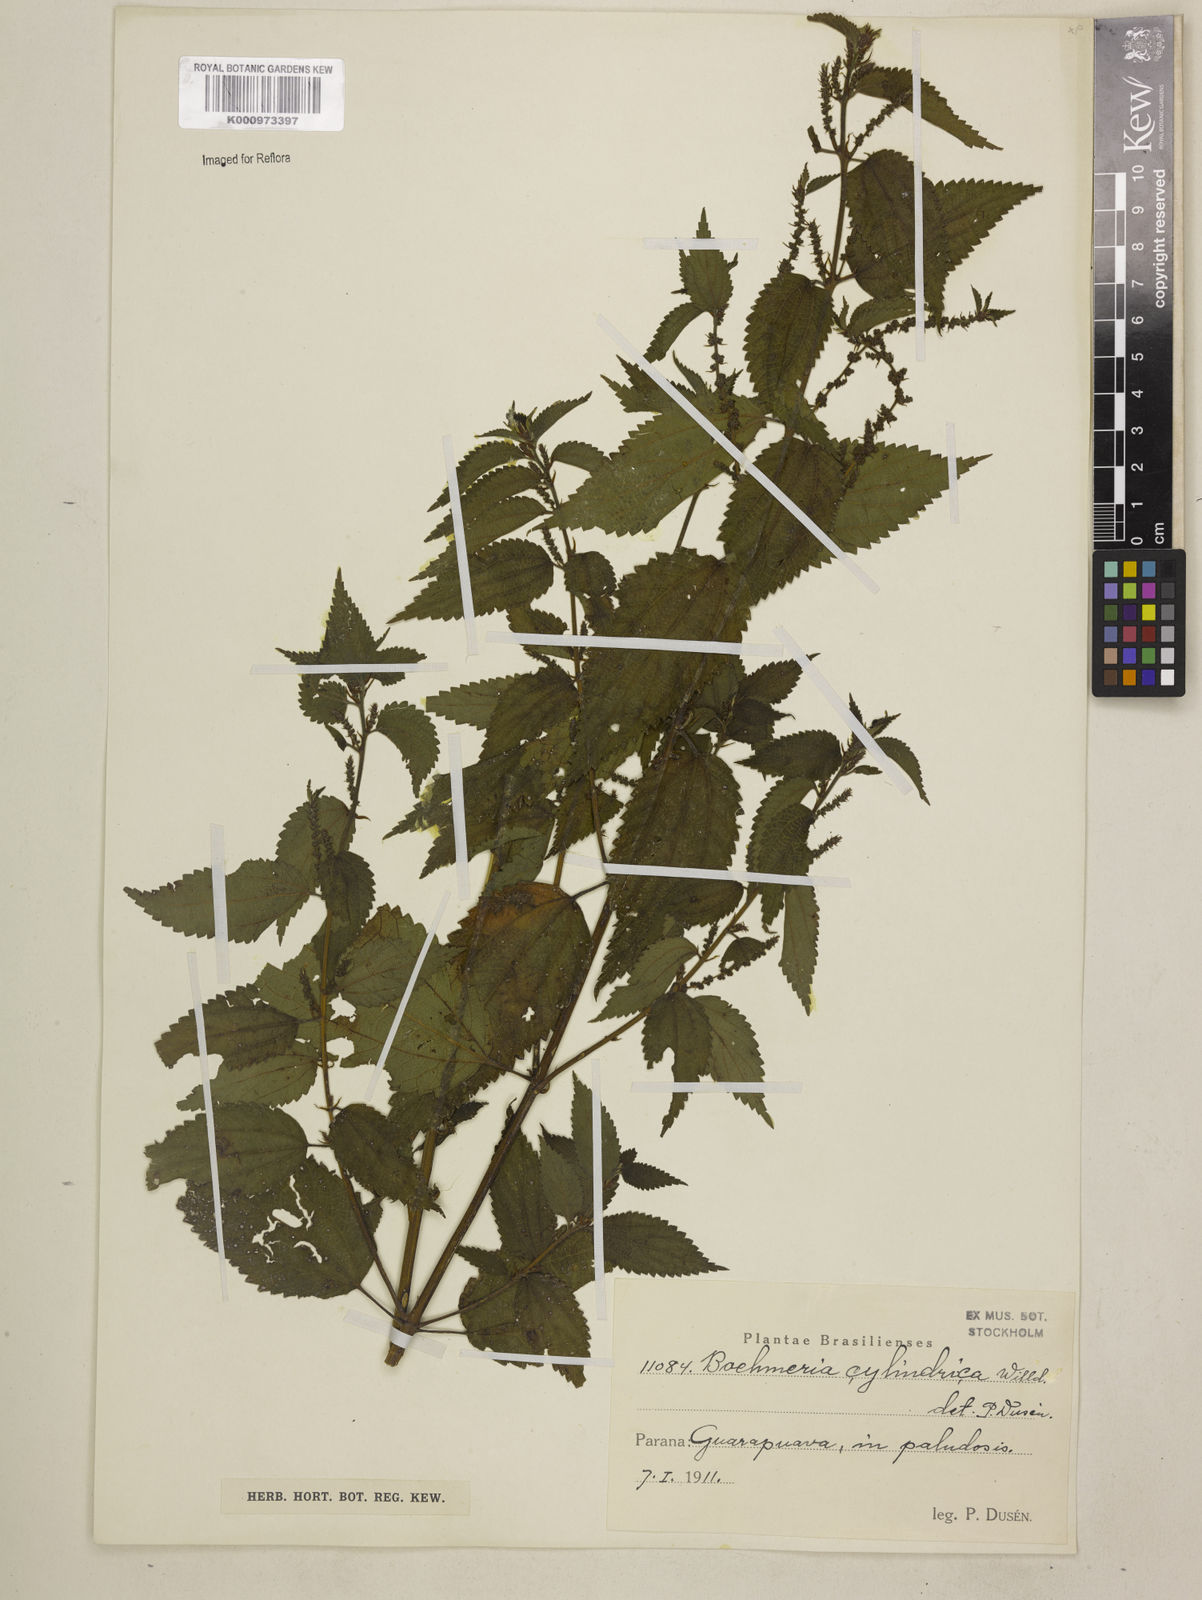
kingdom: Plantae
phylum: Tracheophyta
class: Magnoliopsida
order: Rosales
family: Urticaceae
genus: Boehmeria
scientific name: Boehmeria cylindrica
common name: Bog-hemp
